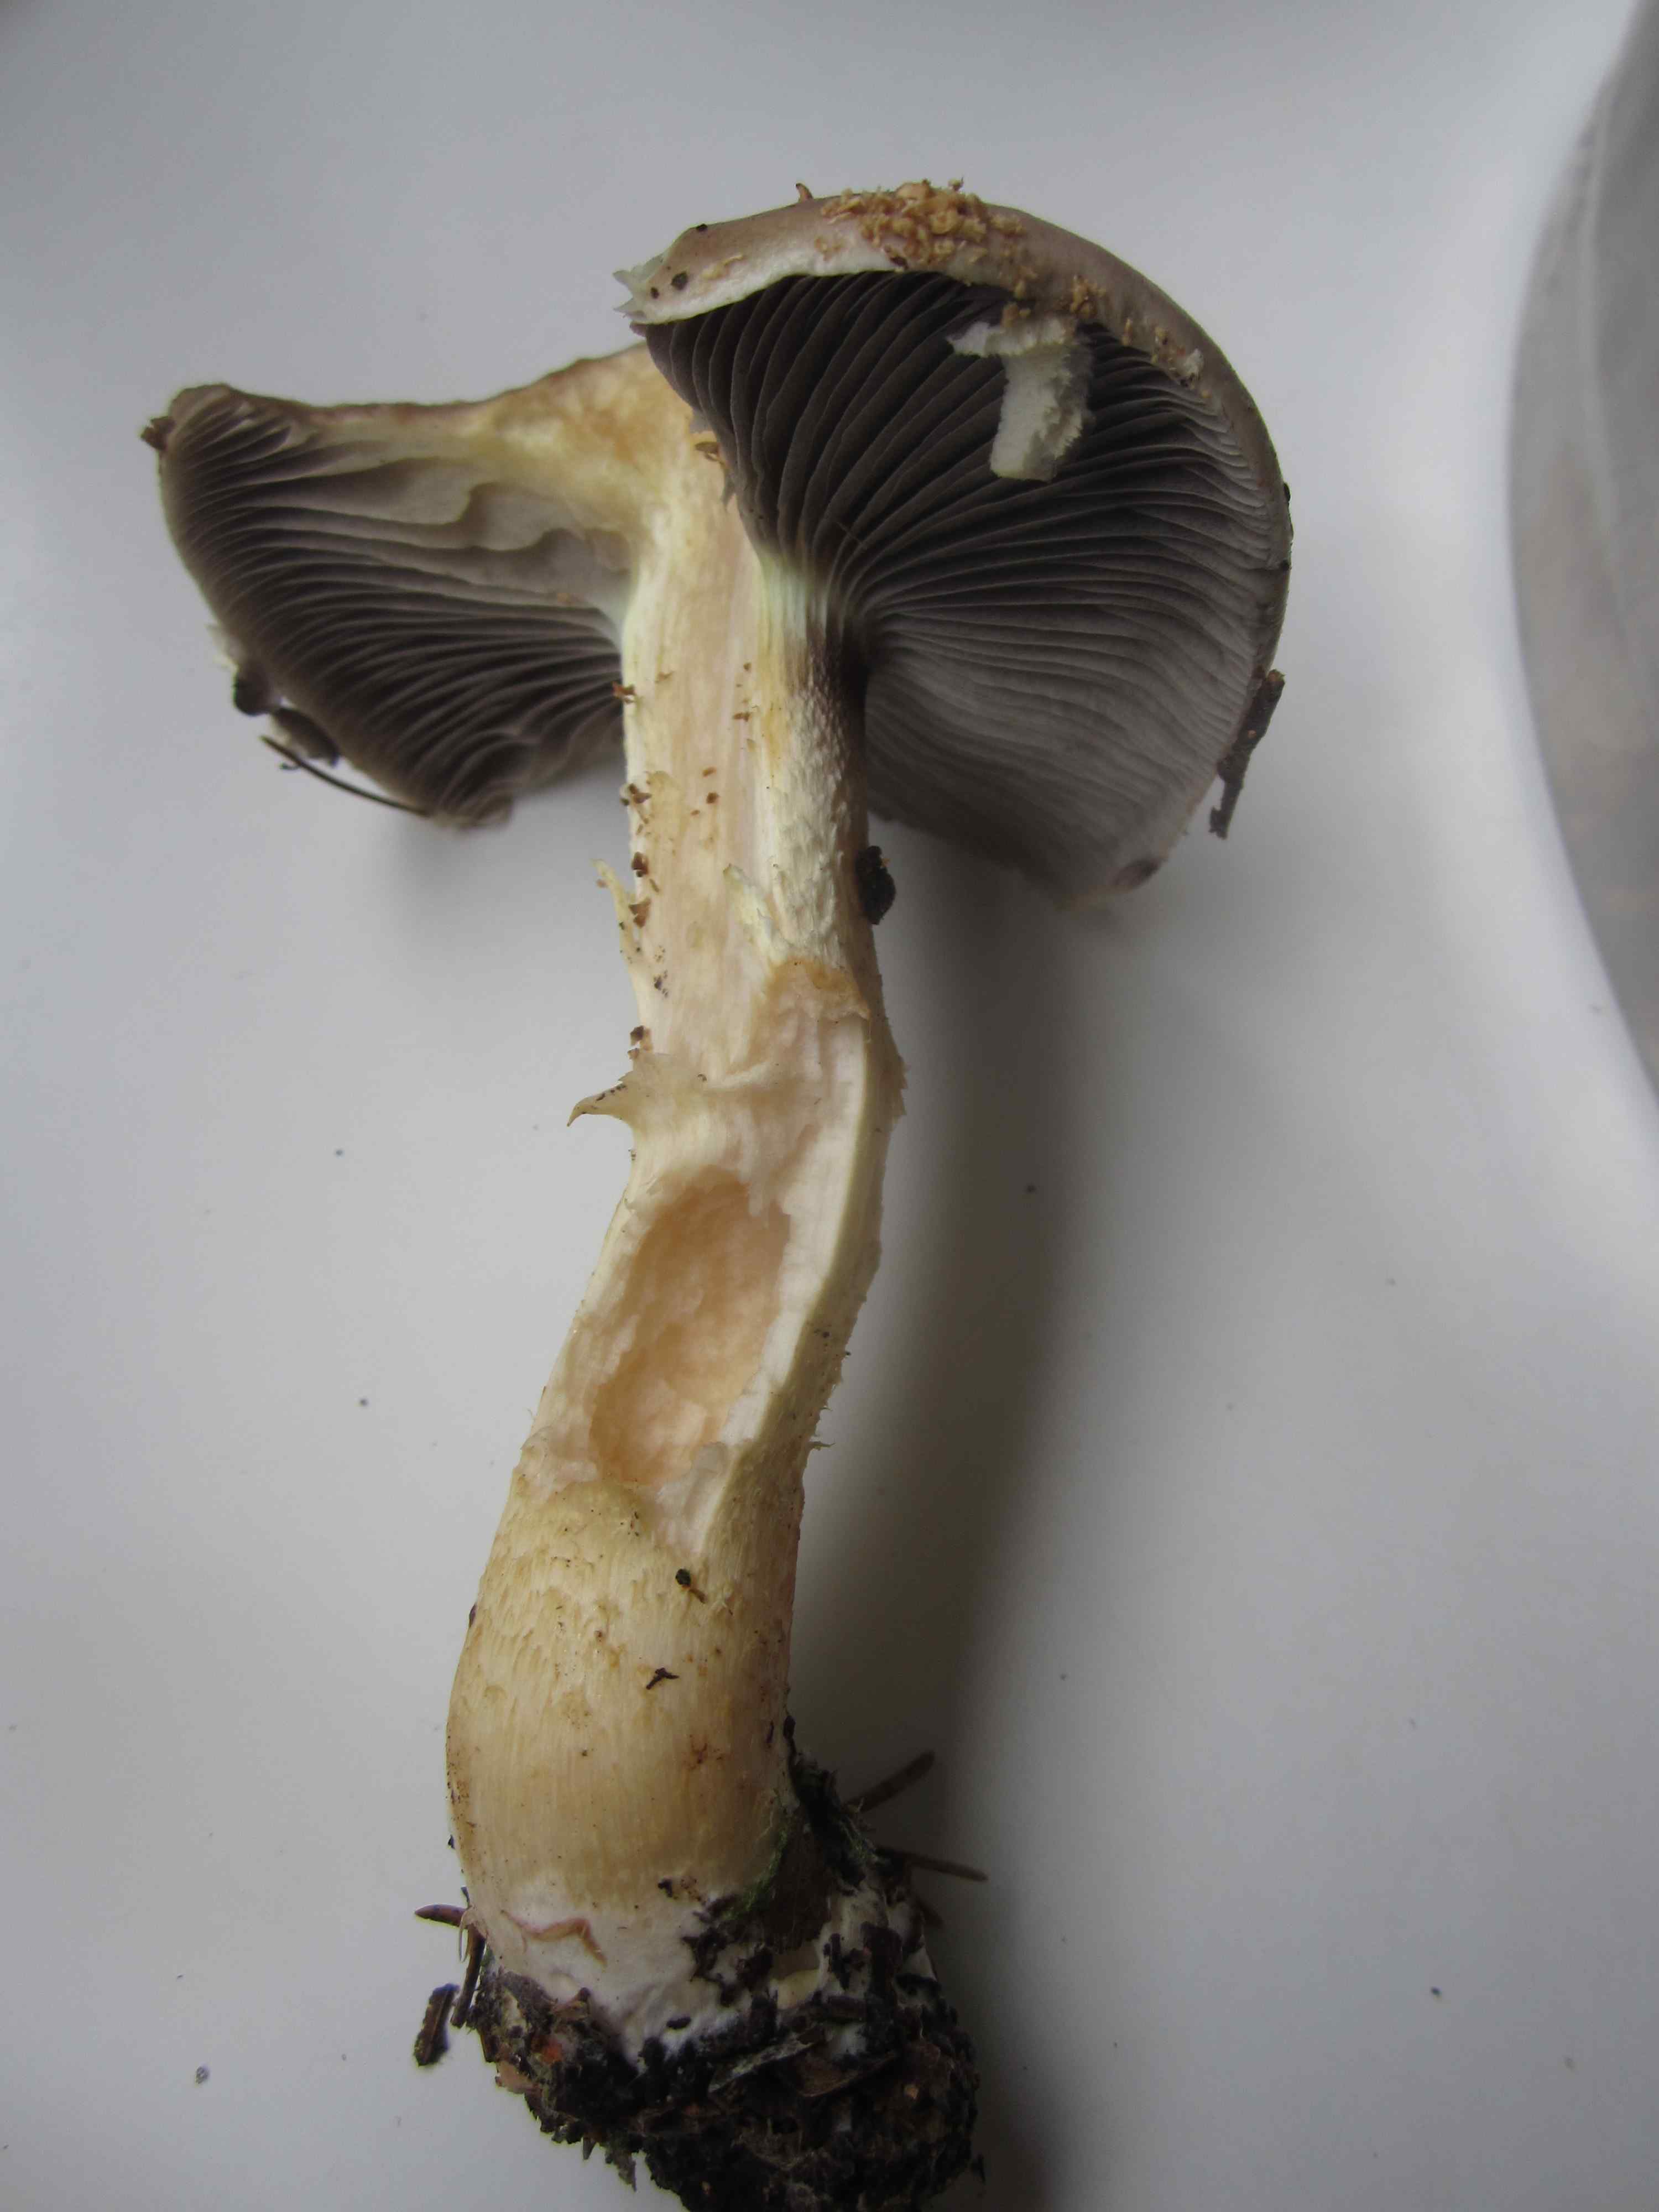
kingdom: Fungi
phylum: Basidiomycota
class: Agaricomycetes
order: Agaricales
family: Strophariaceae
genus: Stropharia
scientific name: Stropharia hornemannii
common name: nordisk bredblad
